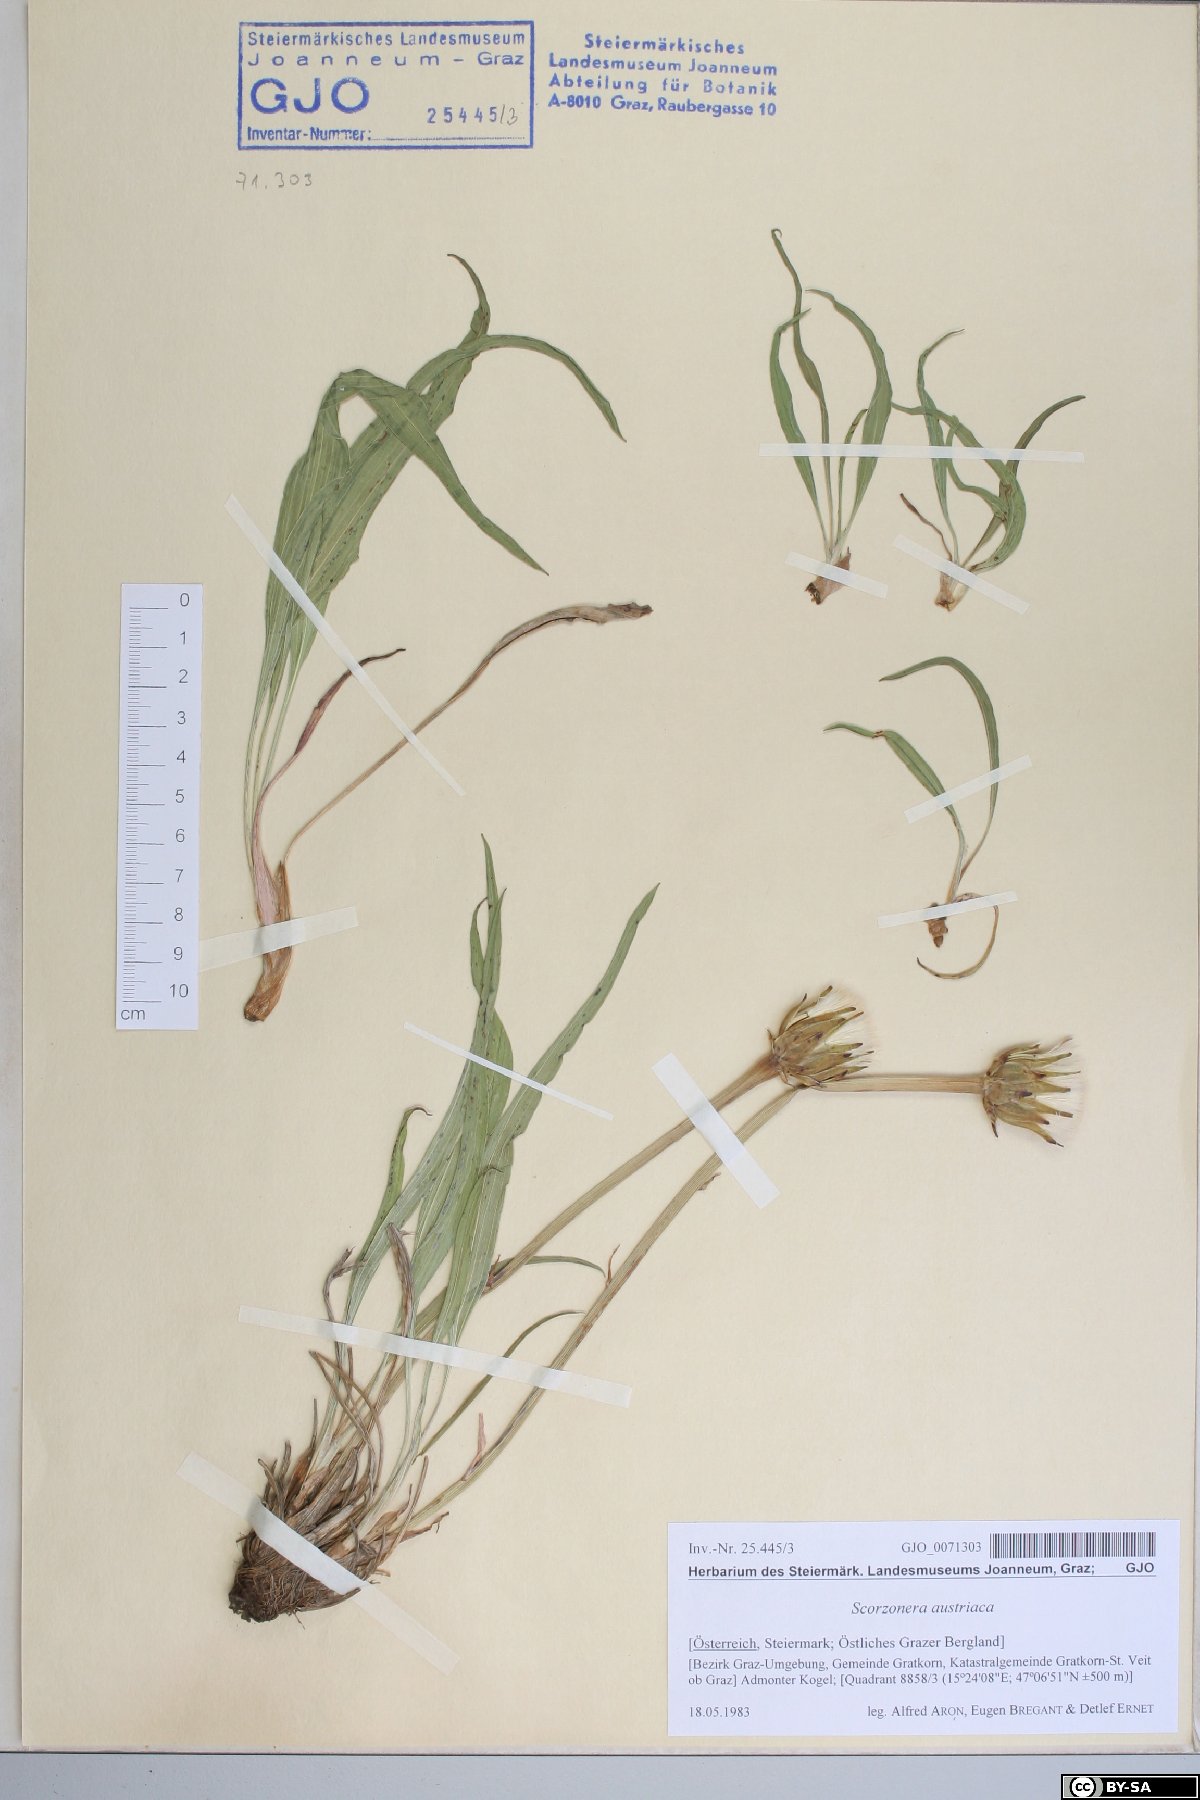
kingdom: Plantae
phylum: Tracheophyta
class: Magnoliopsida
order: Asterales
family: Asteraceae
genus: Takhtajaniantha
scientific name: Takhtajaniantha austriaca
